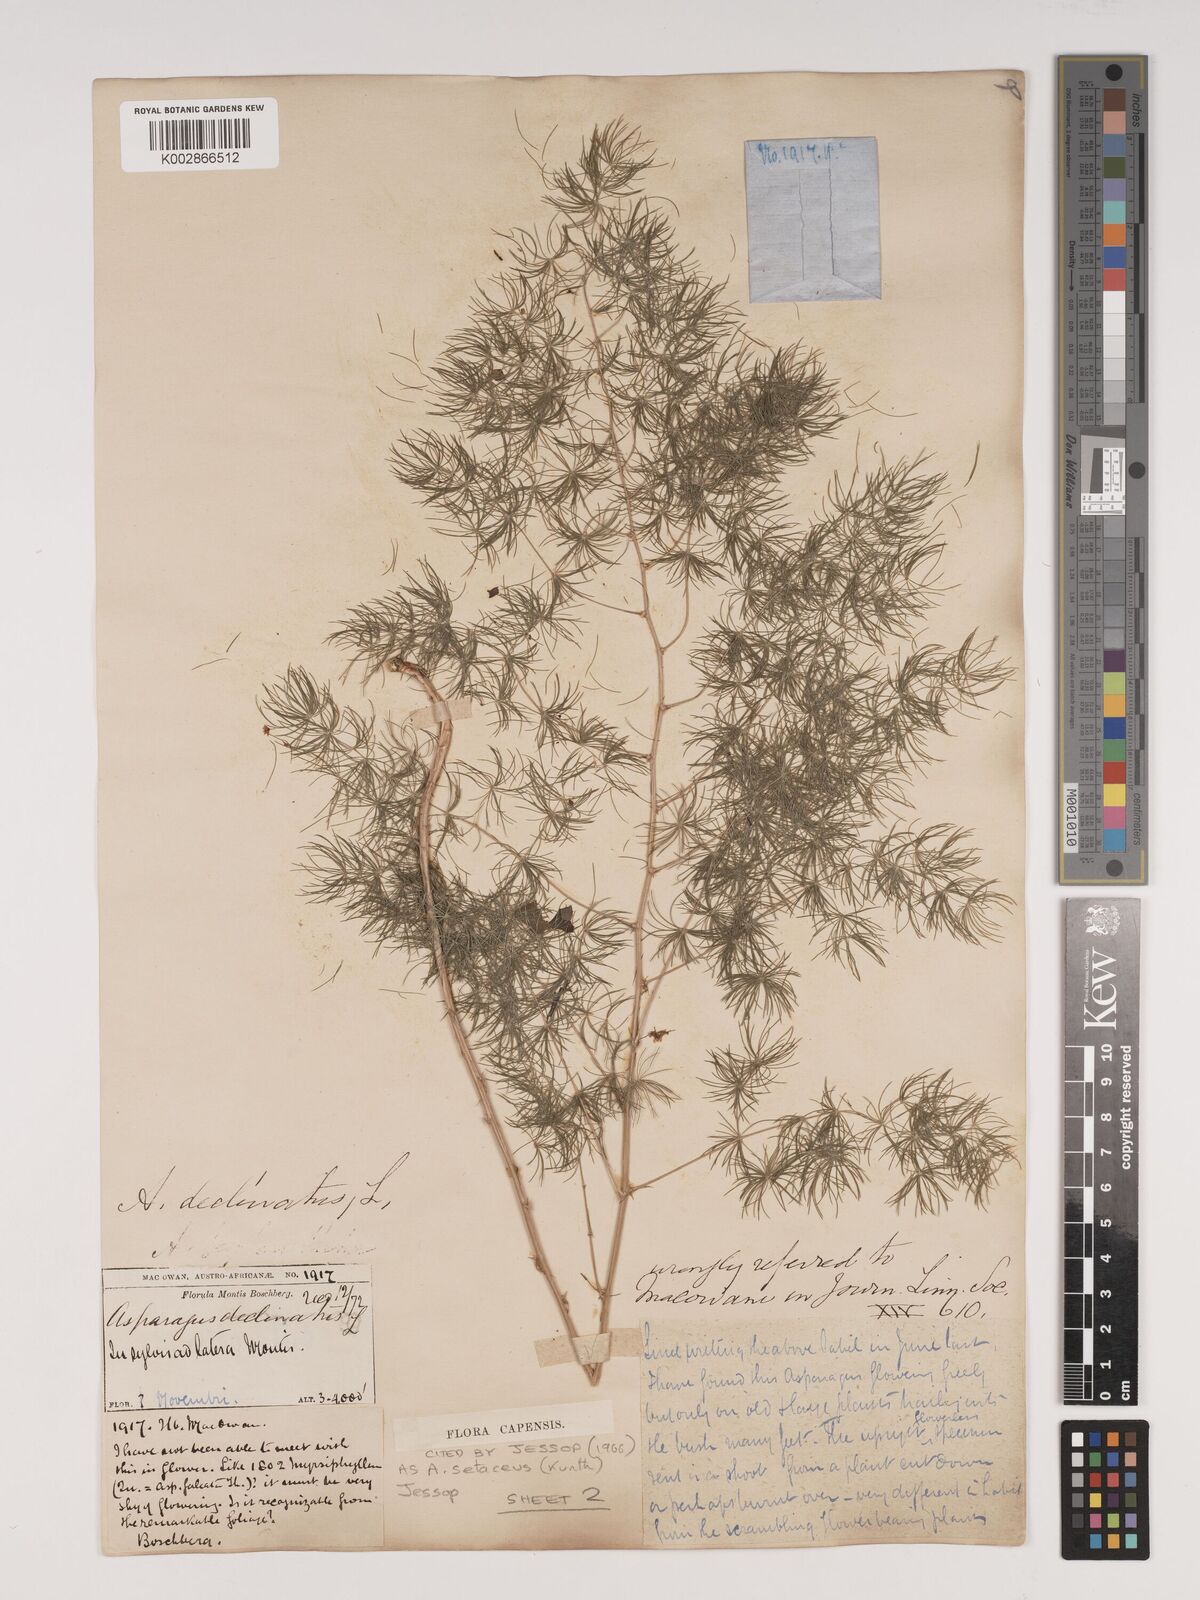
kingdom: Plantae
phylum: Tracheophyta
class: Liliopsida
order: Asparagales
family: Asparagaceae
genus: Asparagus
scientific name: Asparagus setaceus
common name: Common asparagus fern
